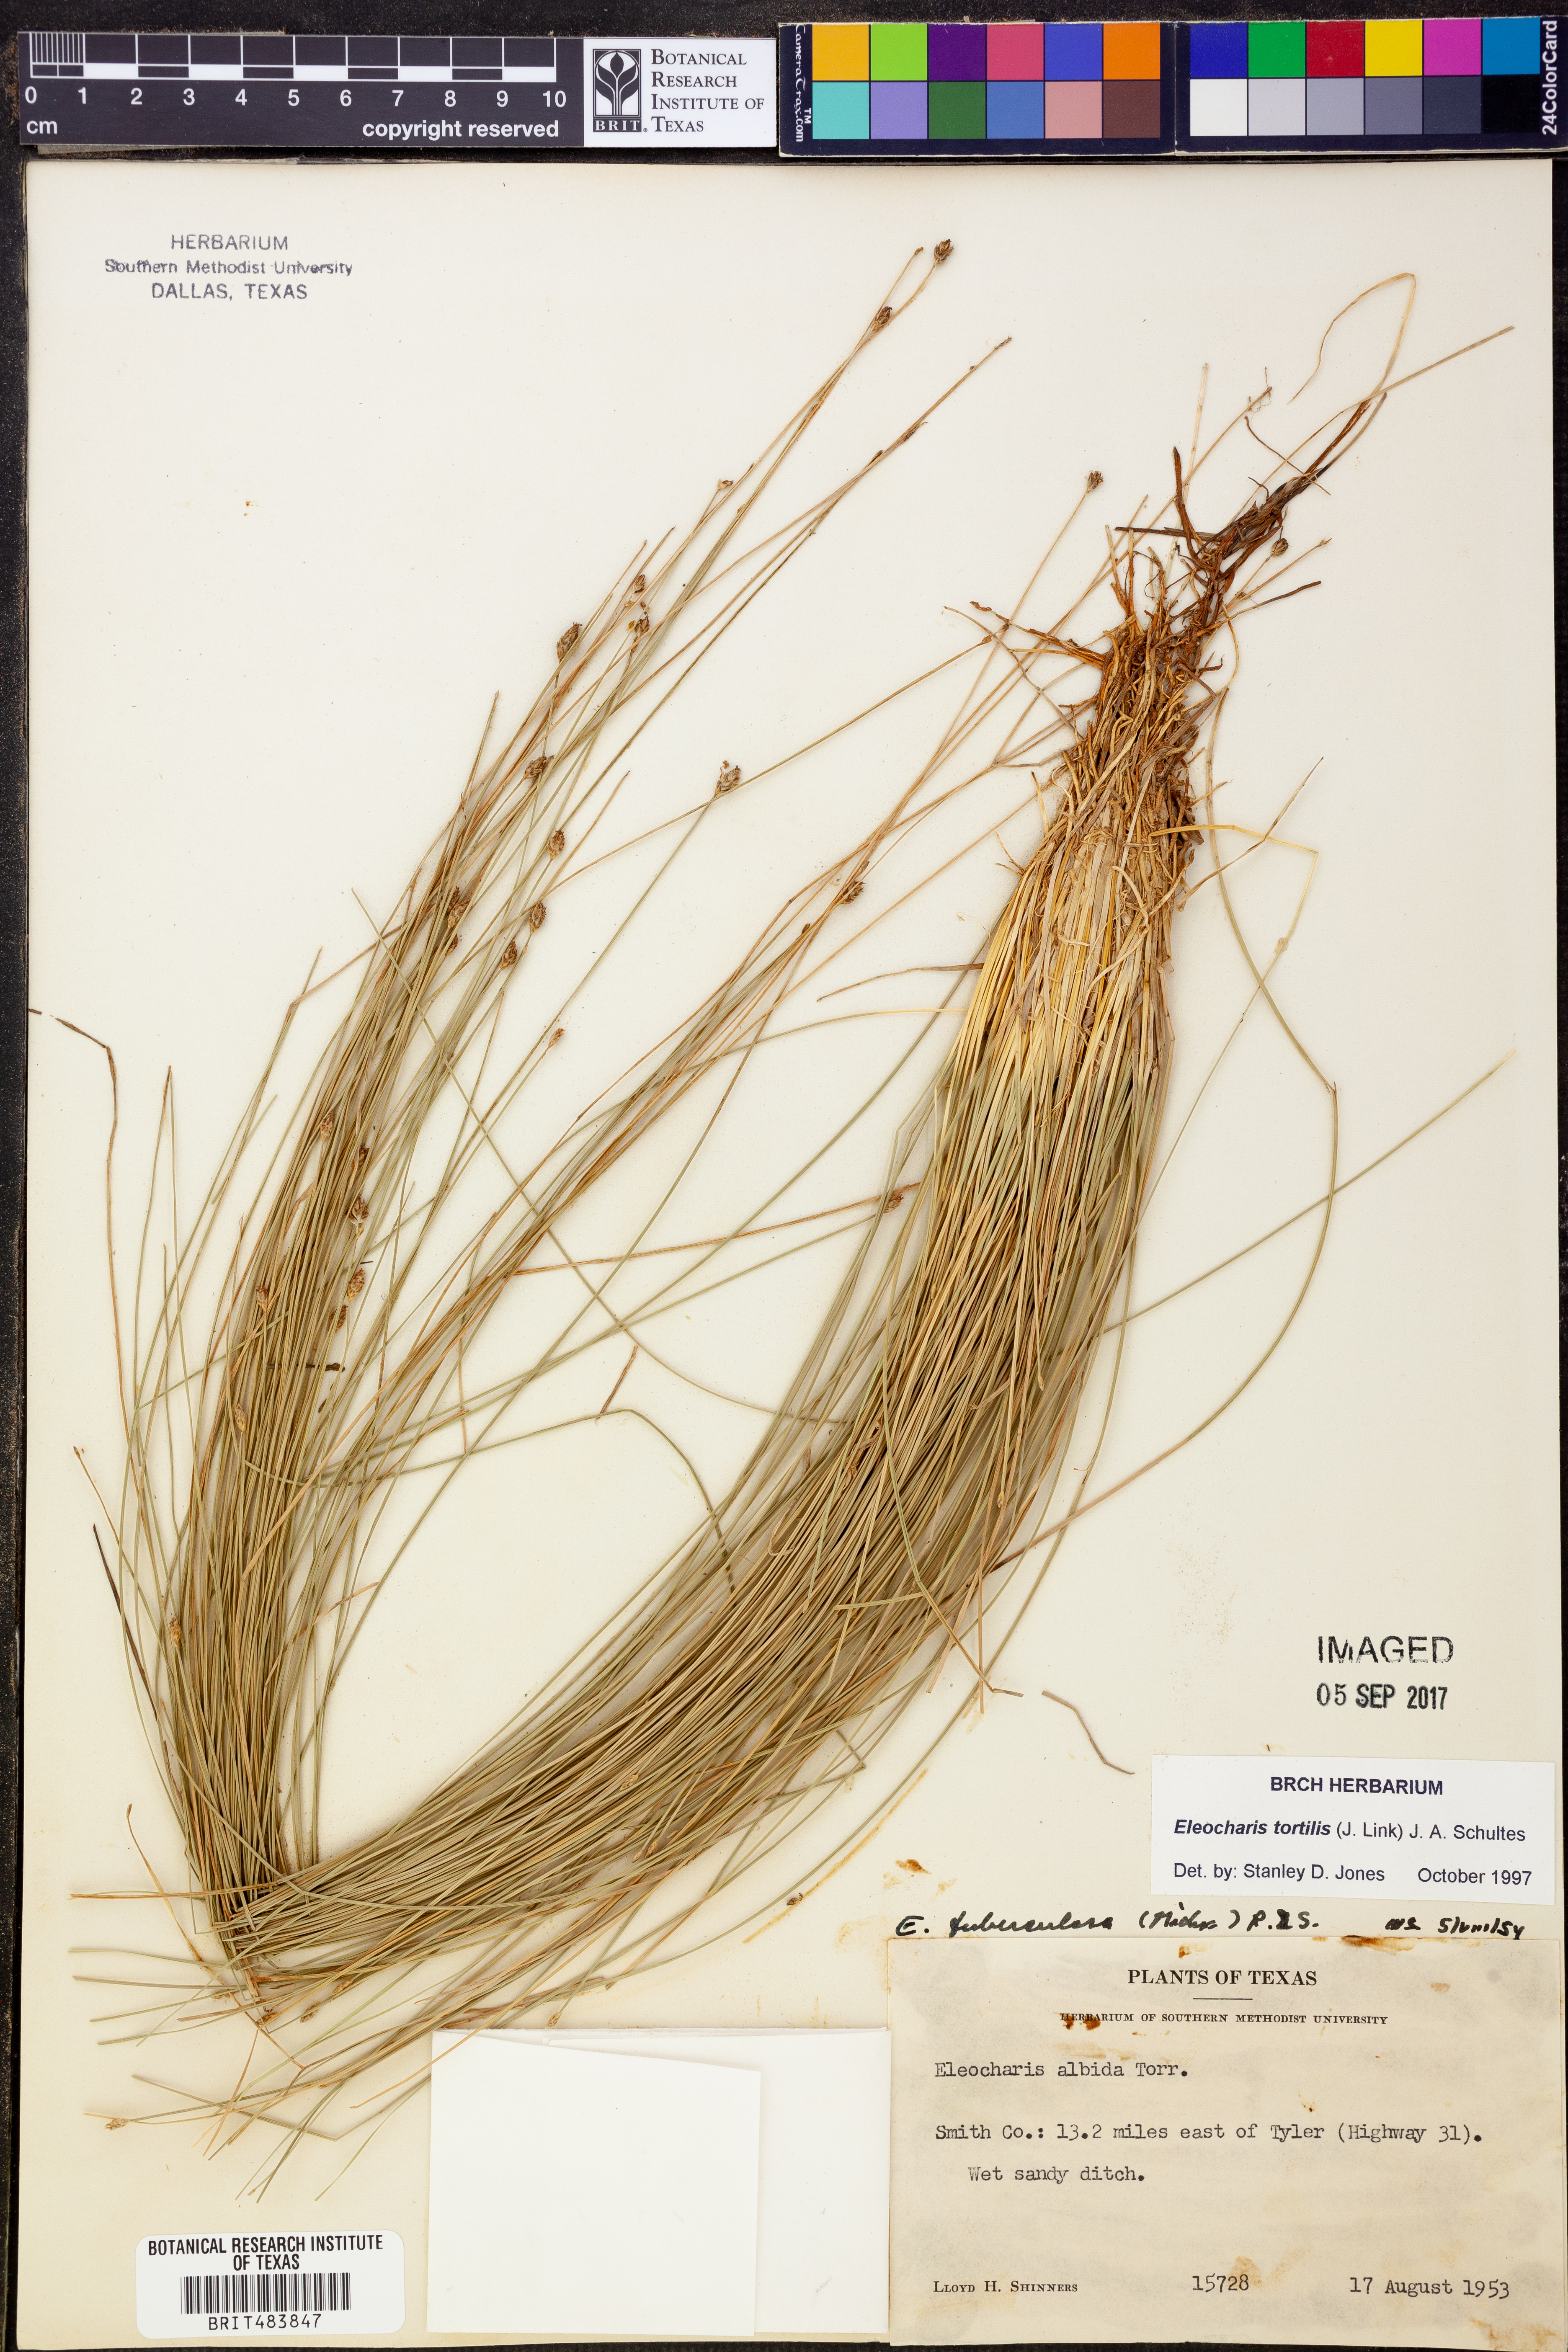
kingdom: Plantae
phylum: Tracheophyta
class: Liliopsida
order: Poales
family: Cyperaceae
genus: Eleocharis
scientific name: Eleocharis tortilis
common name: Twisted spike sedge
